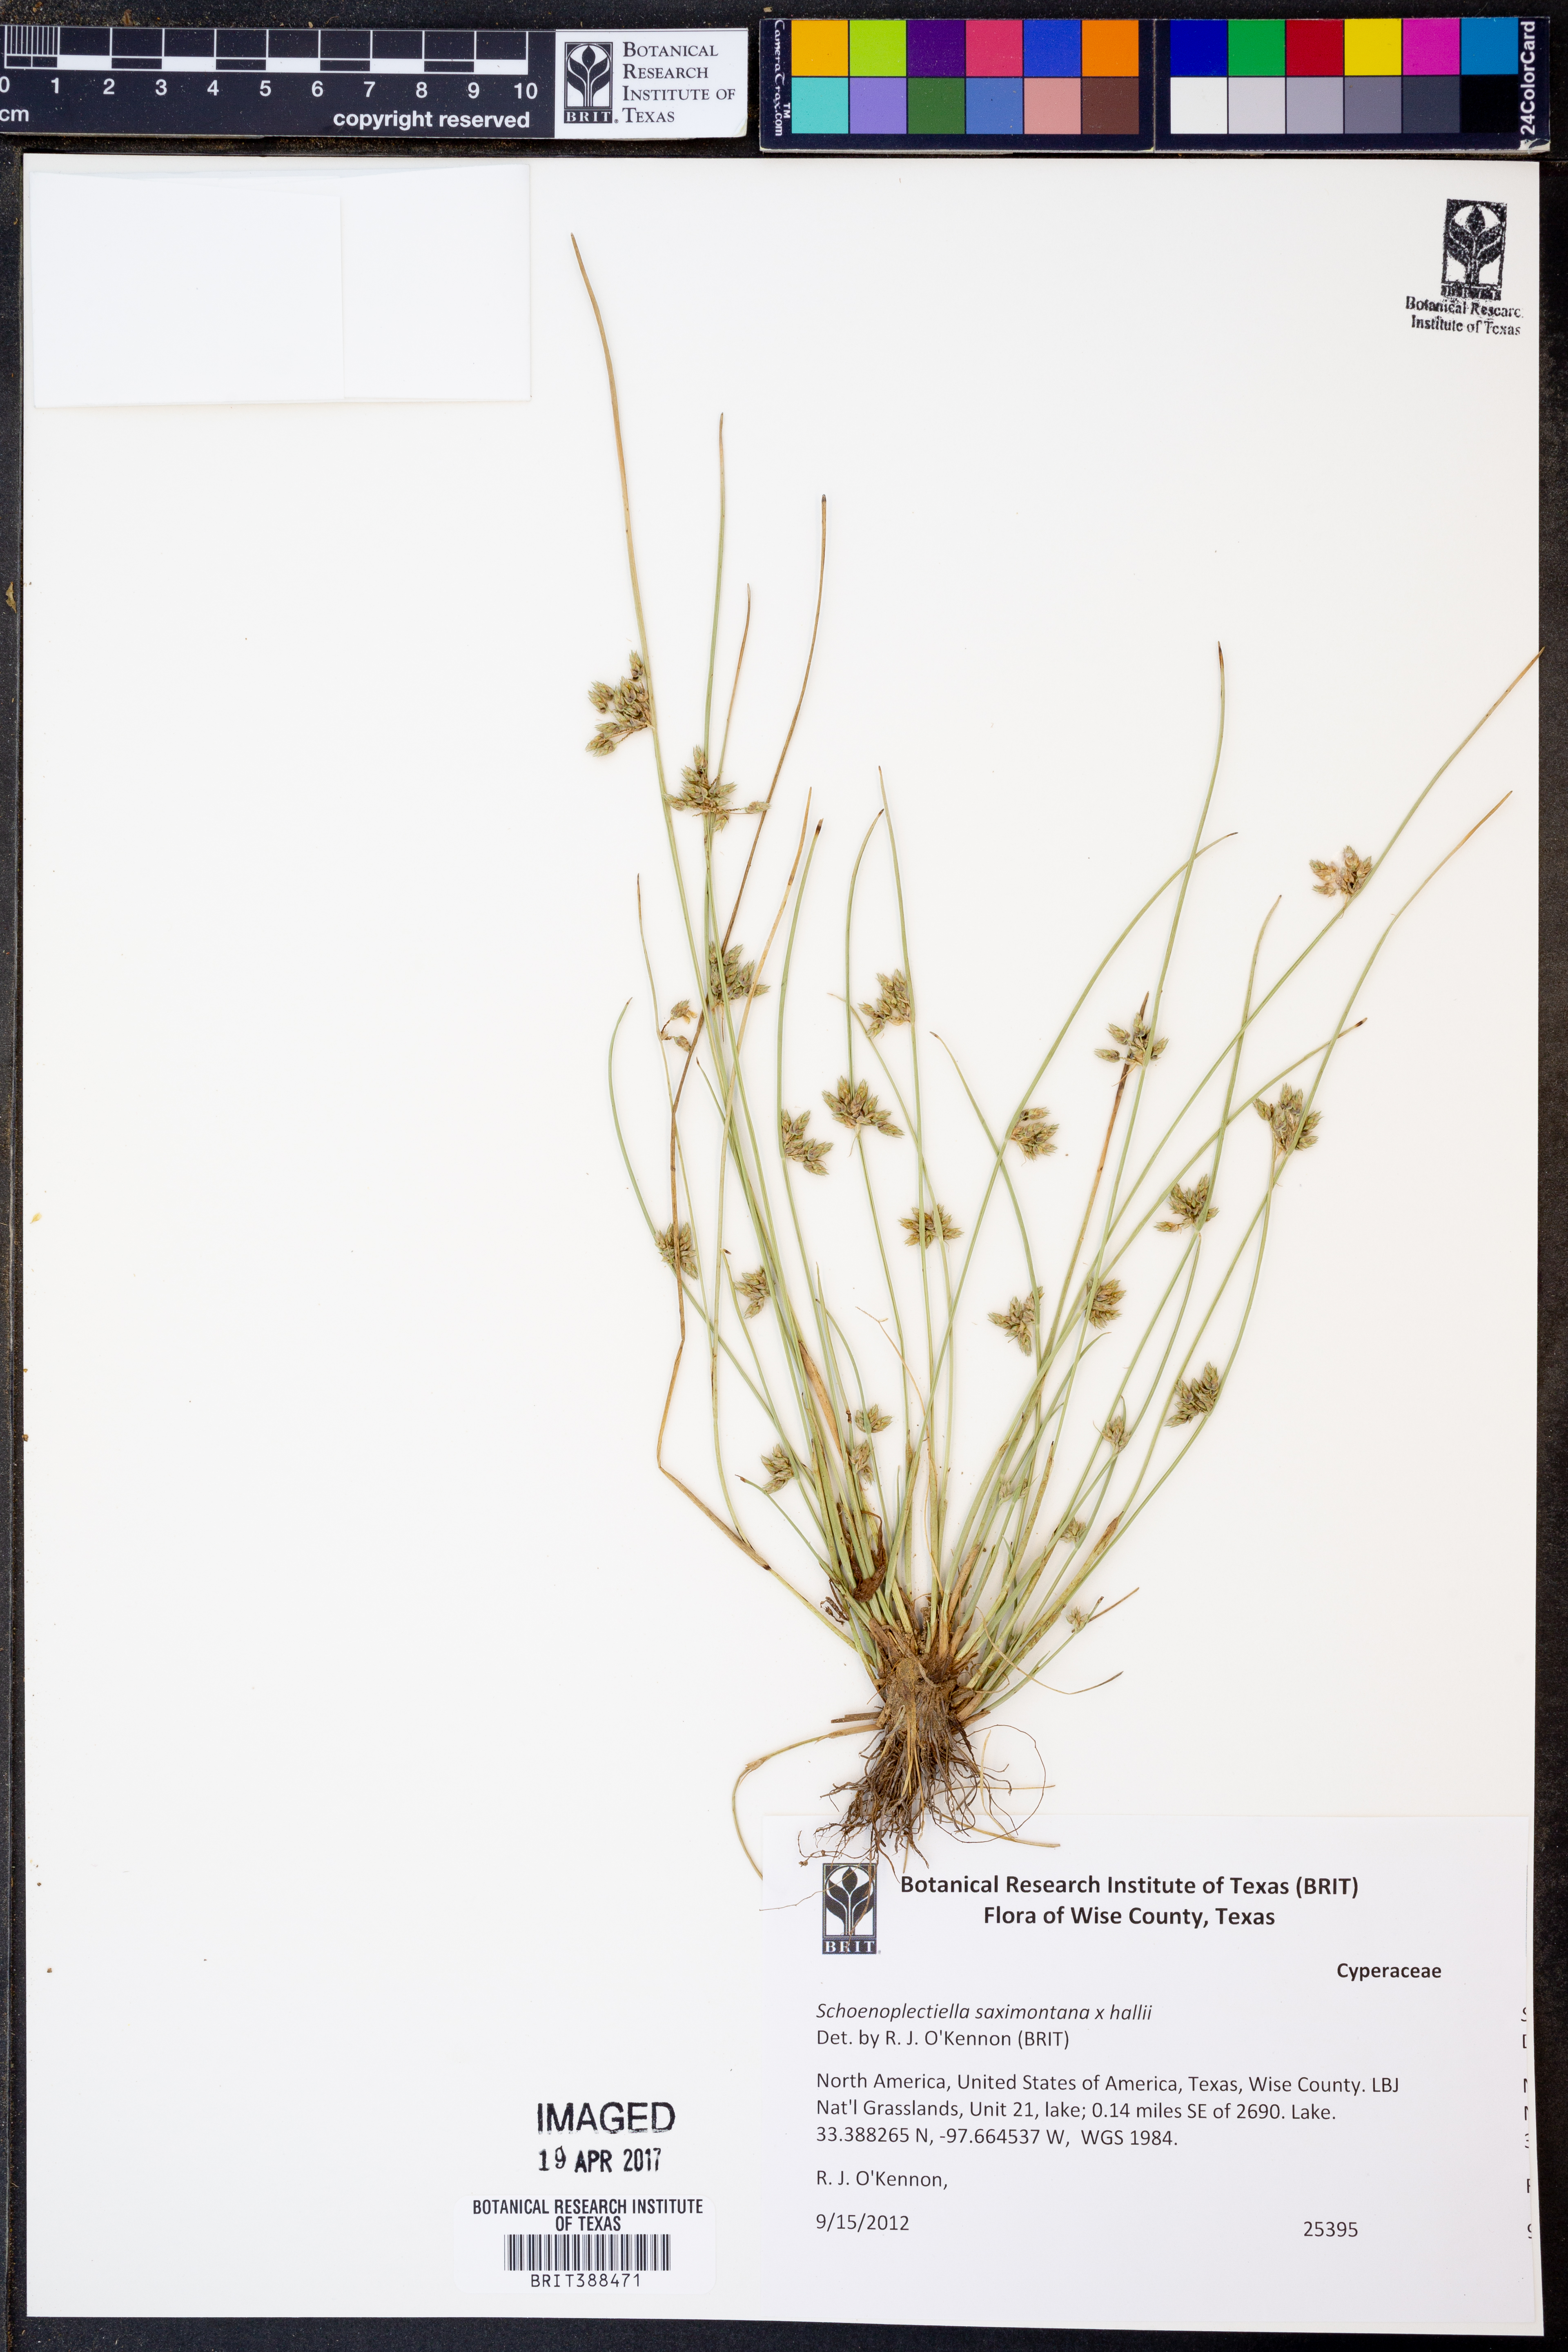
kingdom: Plantae
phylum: Tracheophyta
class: Liliopsida
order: Poales
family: Cyperaceae
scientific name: Cyperaceae
